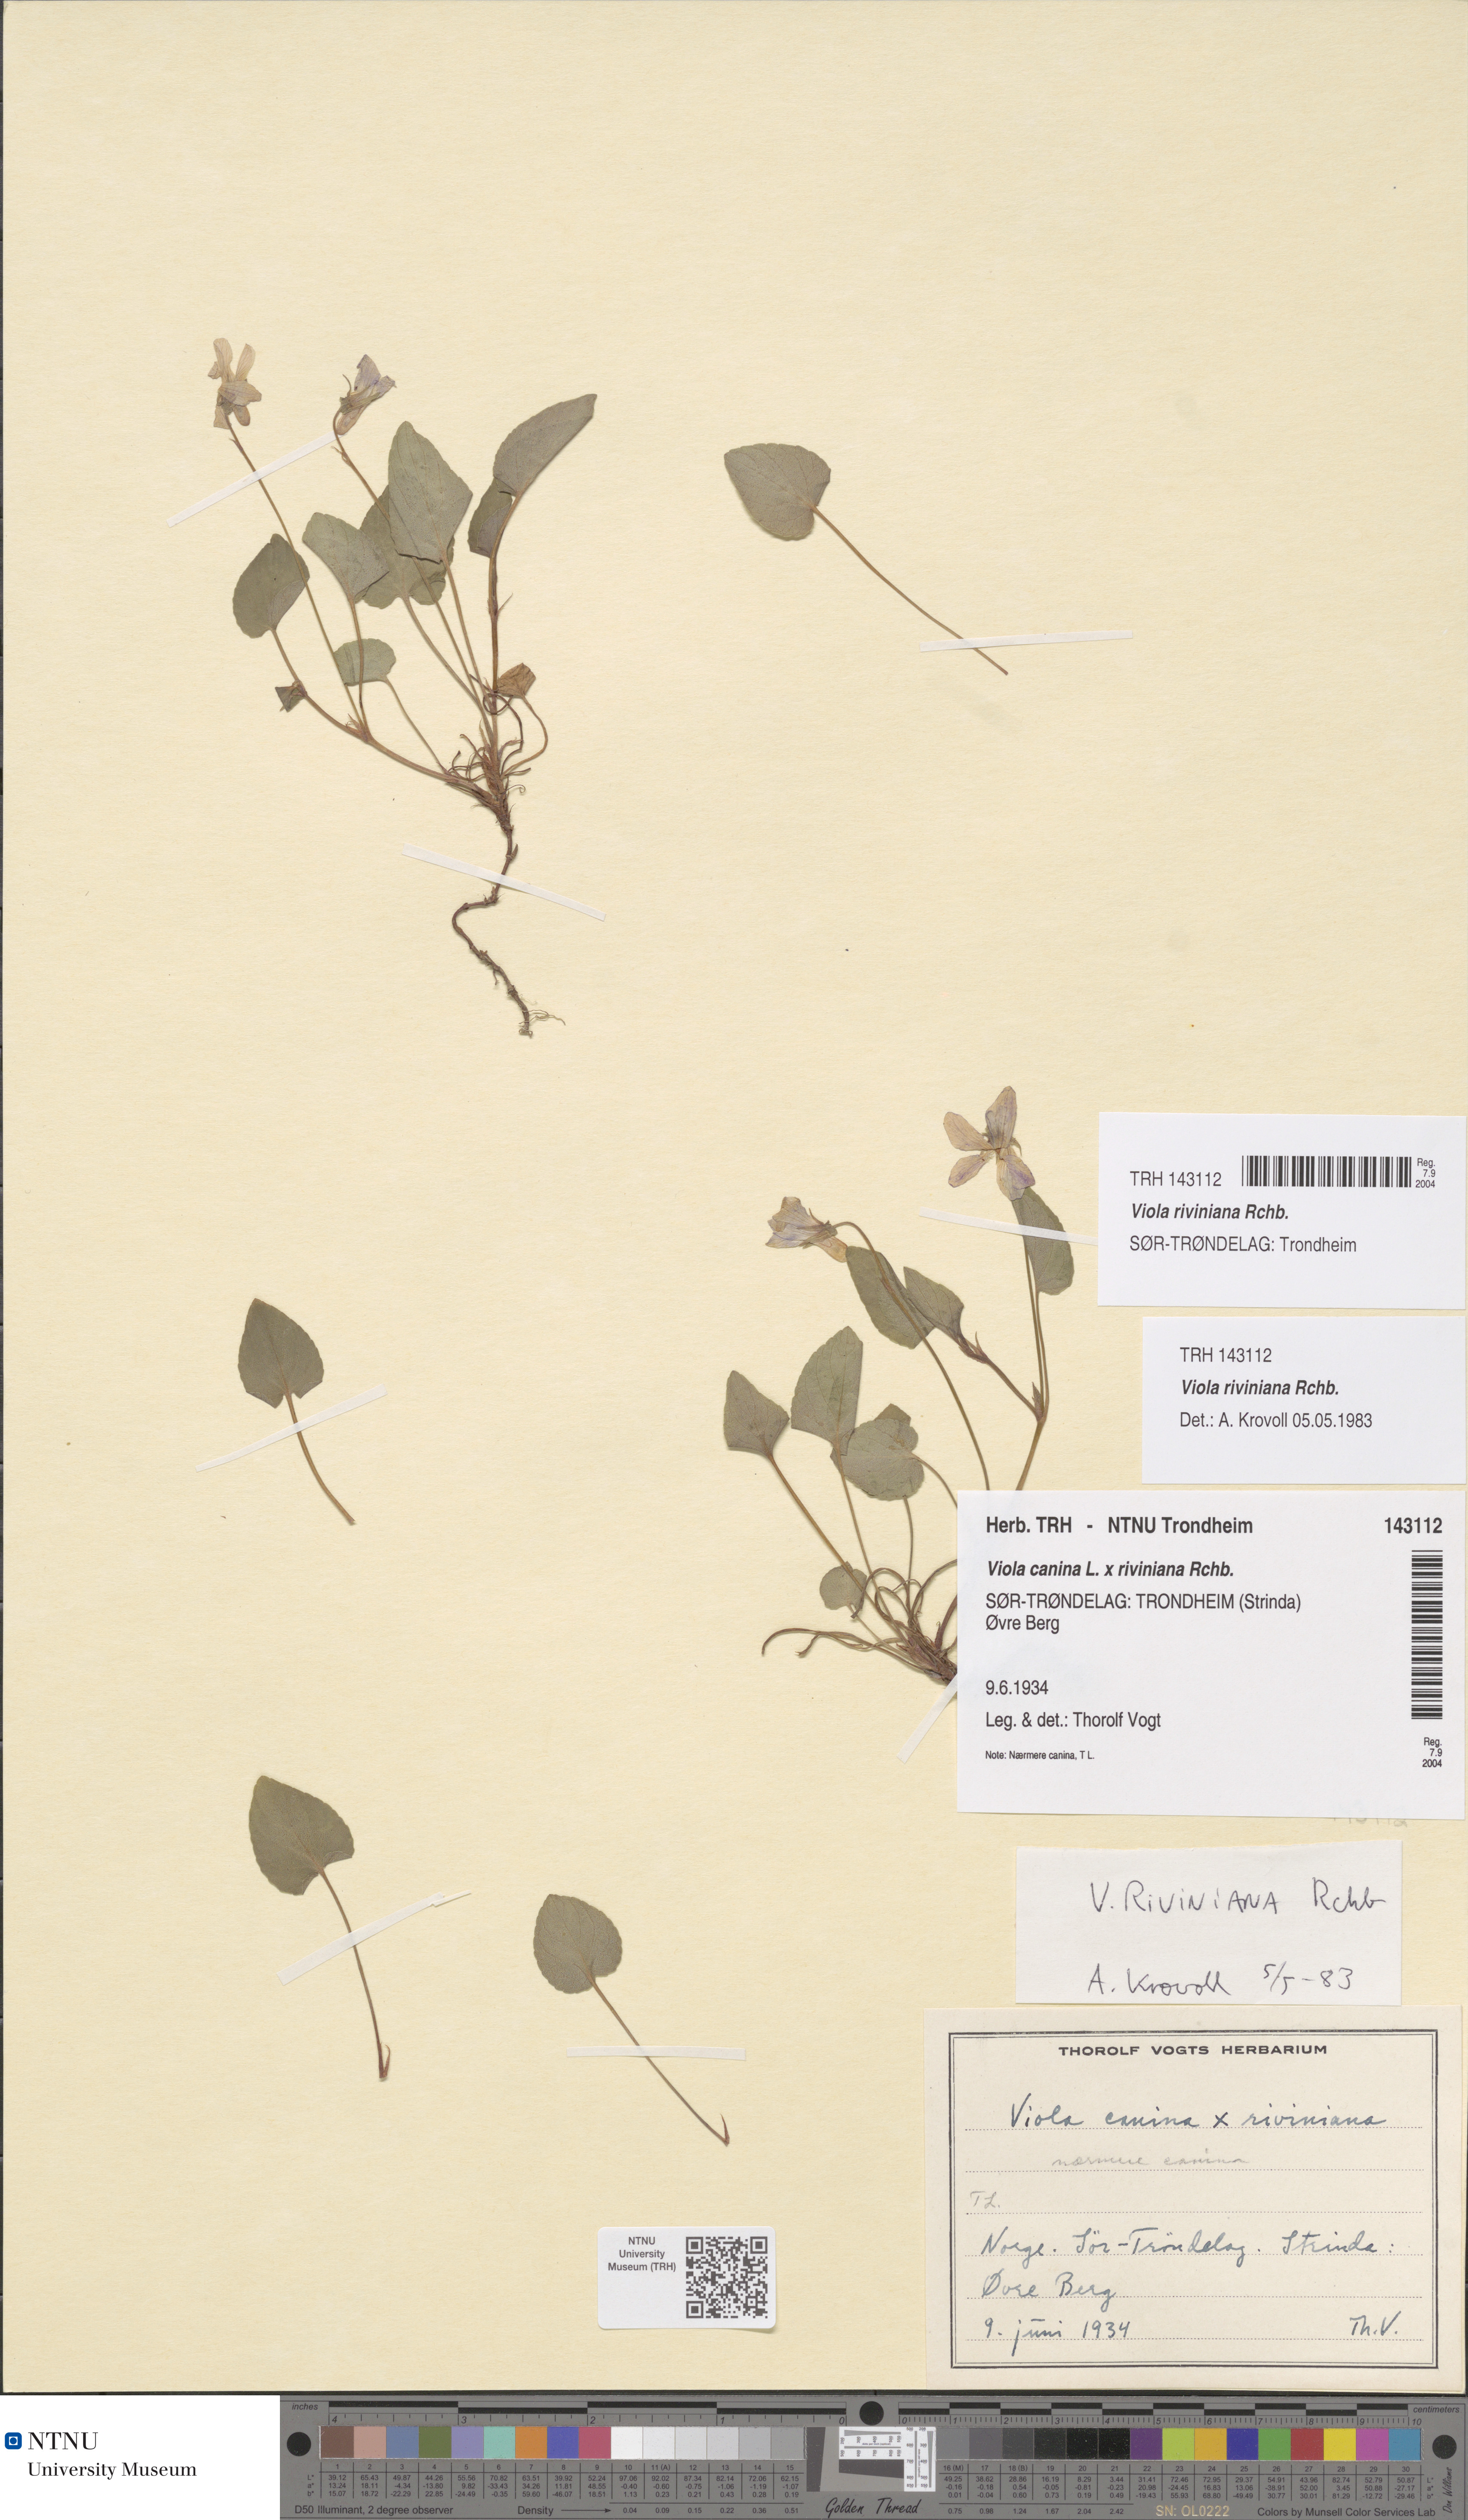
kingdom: Plantae
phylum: Tracheophyta
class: Magnoliopsida
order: Malpighiales
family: Violaceae
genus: Viola
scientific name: Viola riviniana
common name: Common dog-violet
